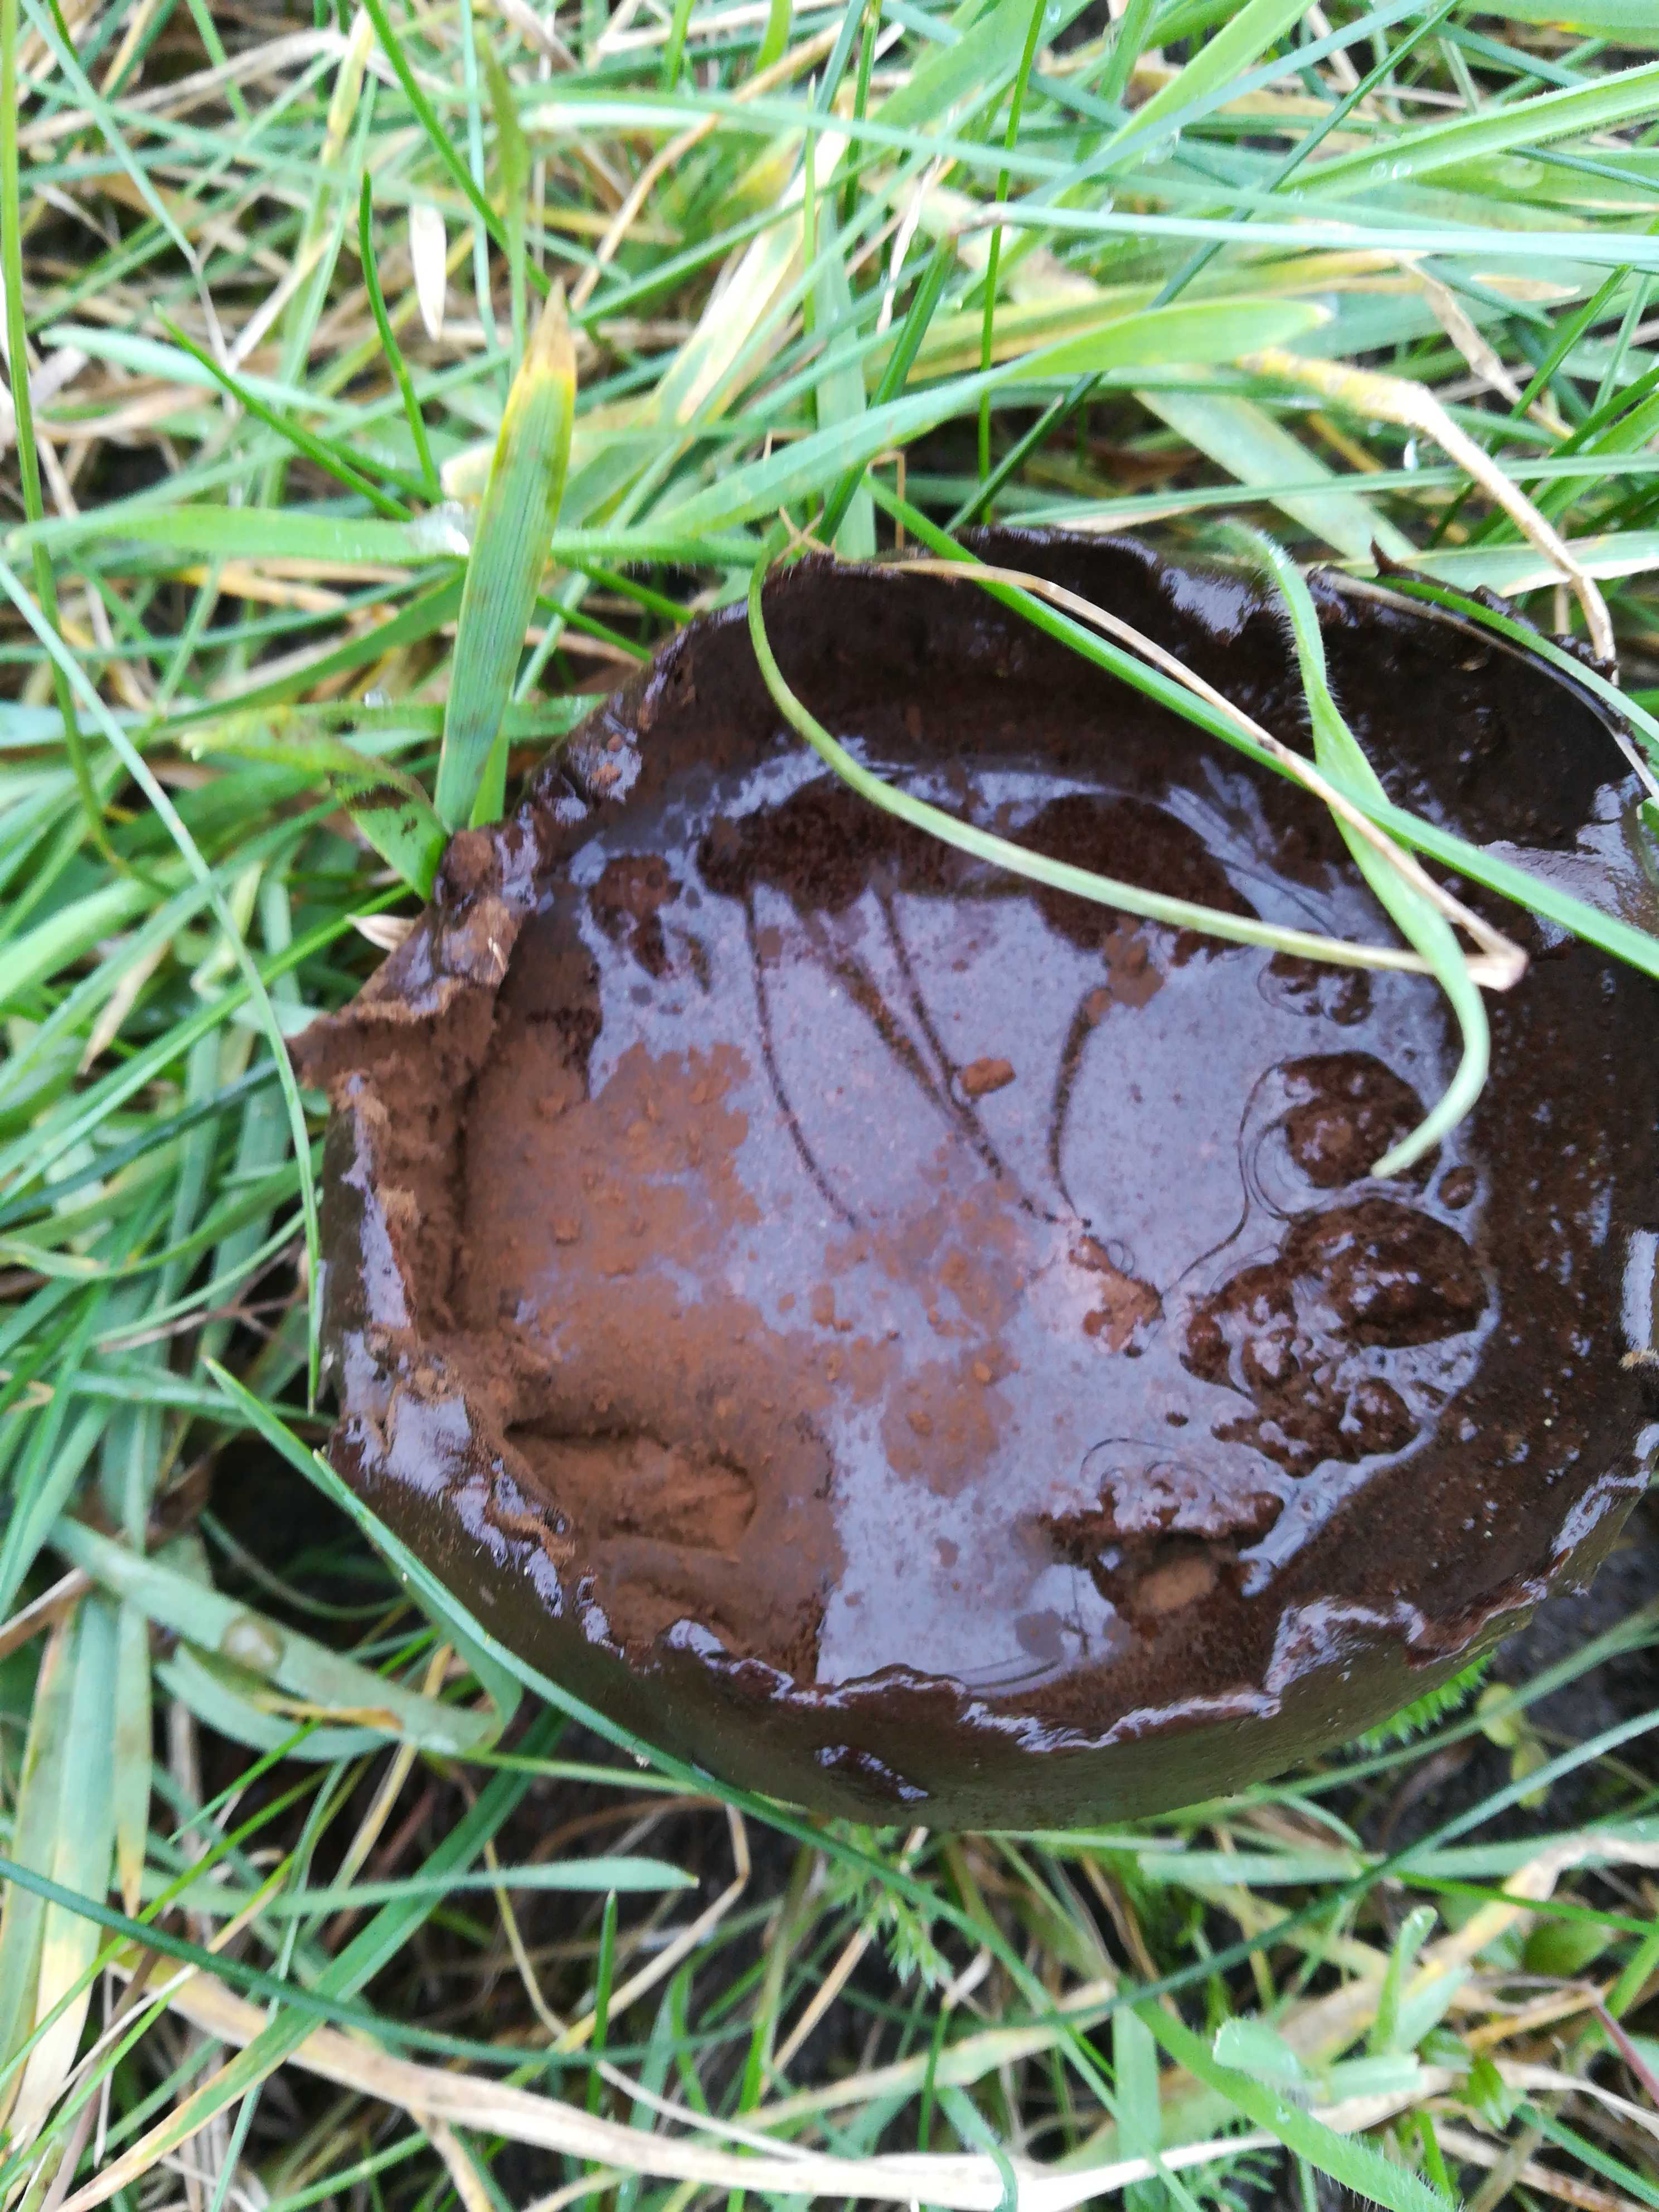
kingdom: Fungi
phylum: Basidiomycota
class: Agaricomycetes
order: Agaricales
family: Lycoperdaceae
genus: Bovistella
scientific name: Bovistella utriformis
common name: skællet støvbold
